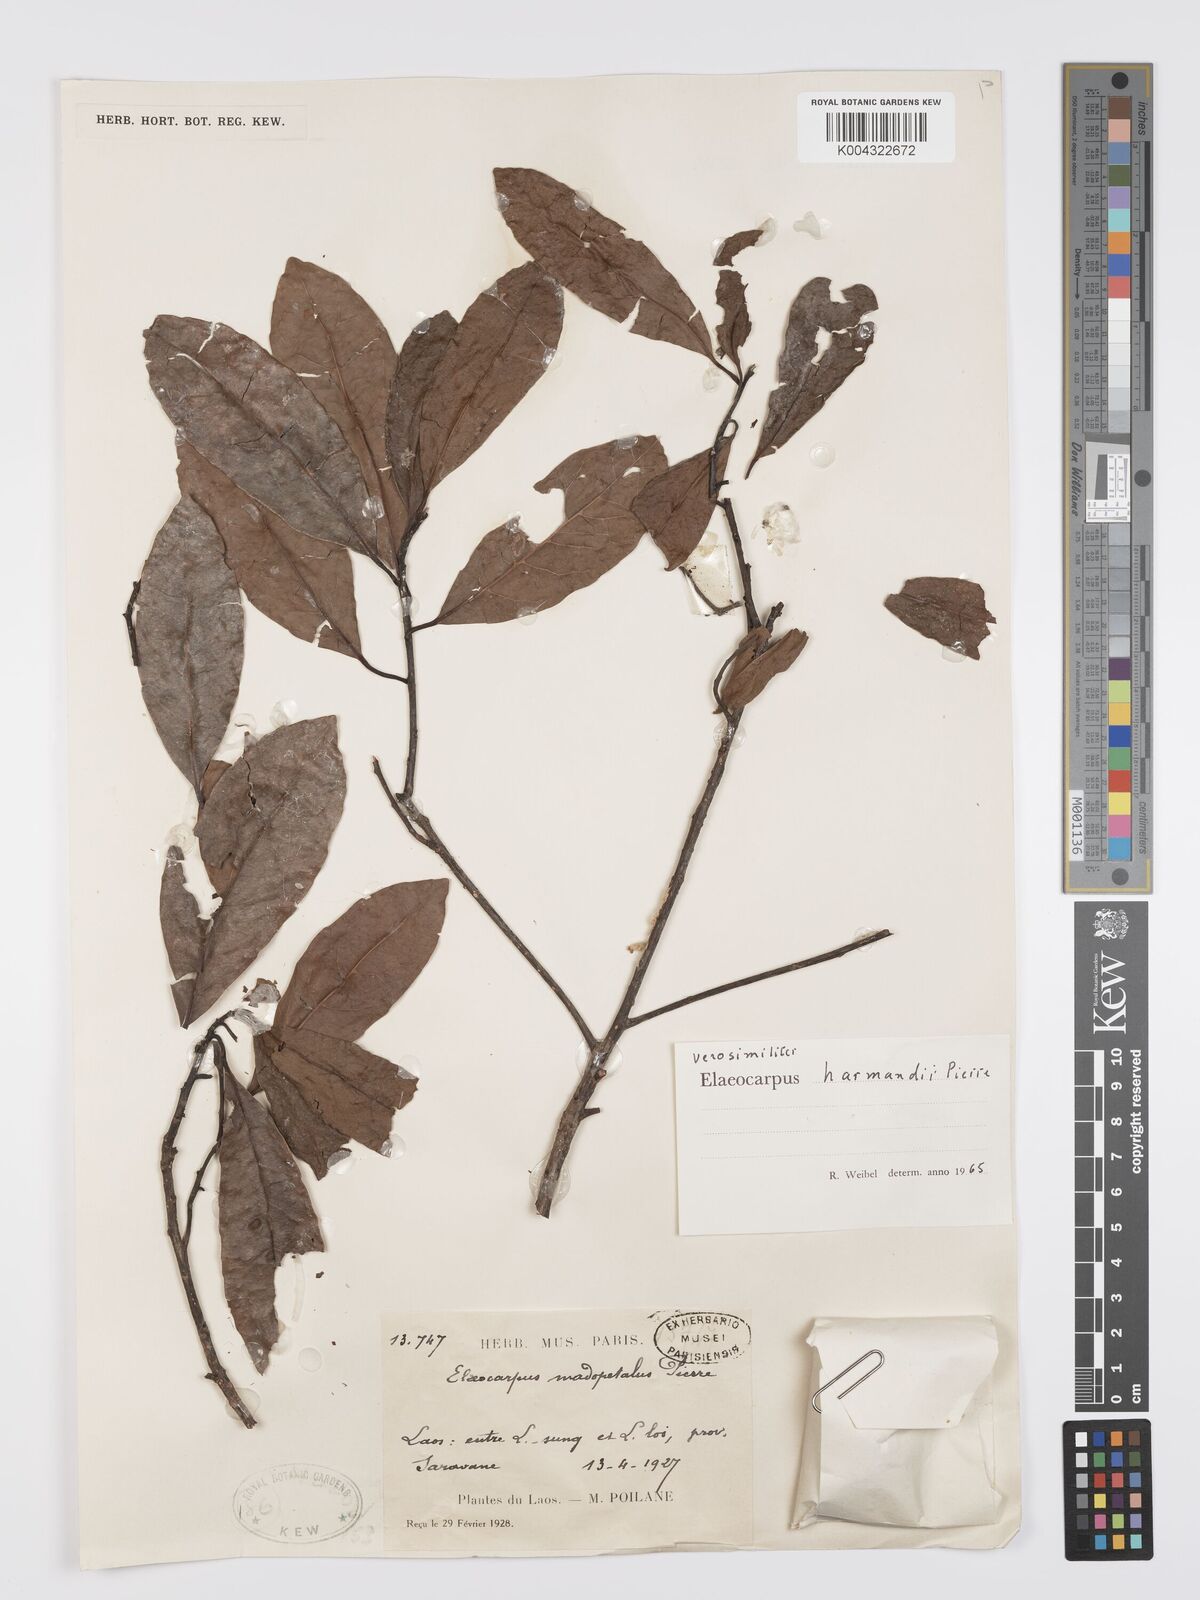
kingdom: Plantae
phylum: Tracheophyta
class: Magnoliopsida
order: Oxalidales
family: Elaeocarpaceae
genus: Elaeocarpus
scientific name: Elaeocarpus harmandii
